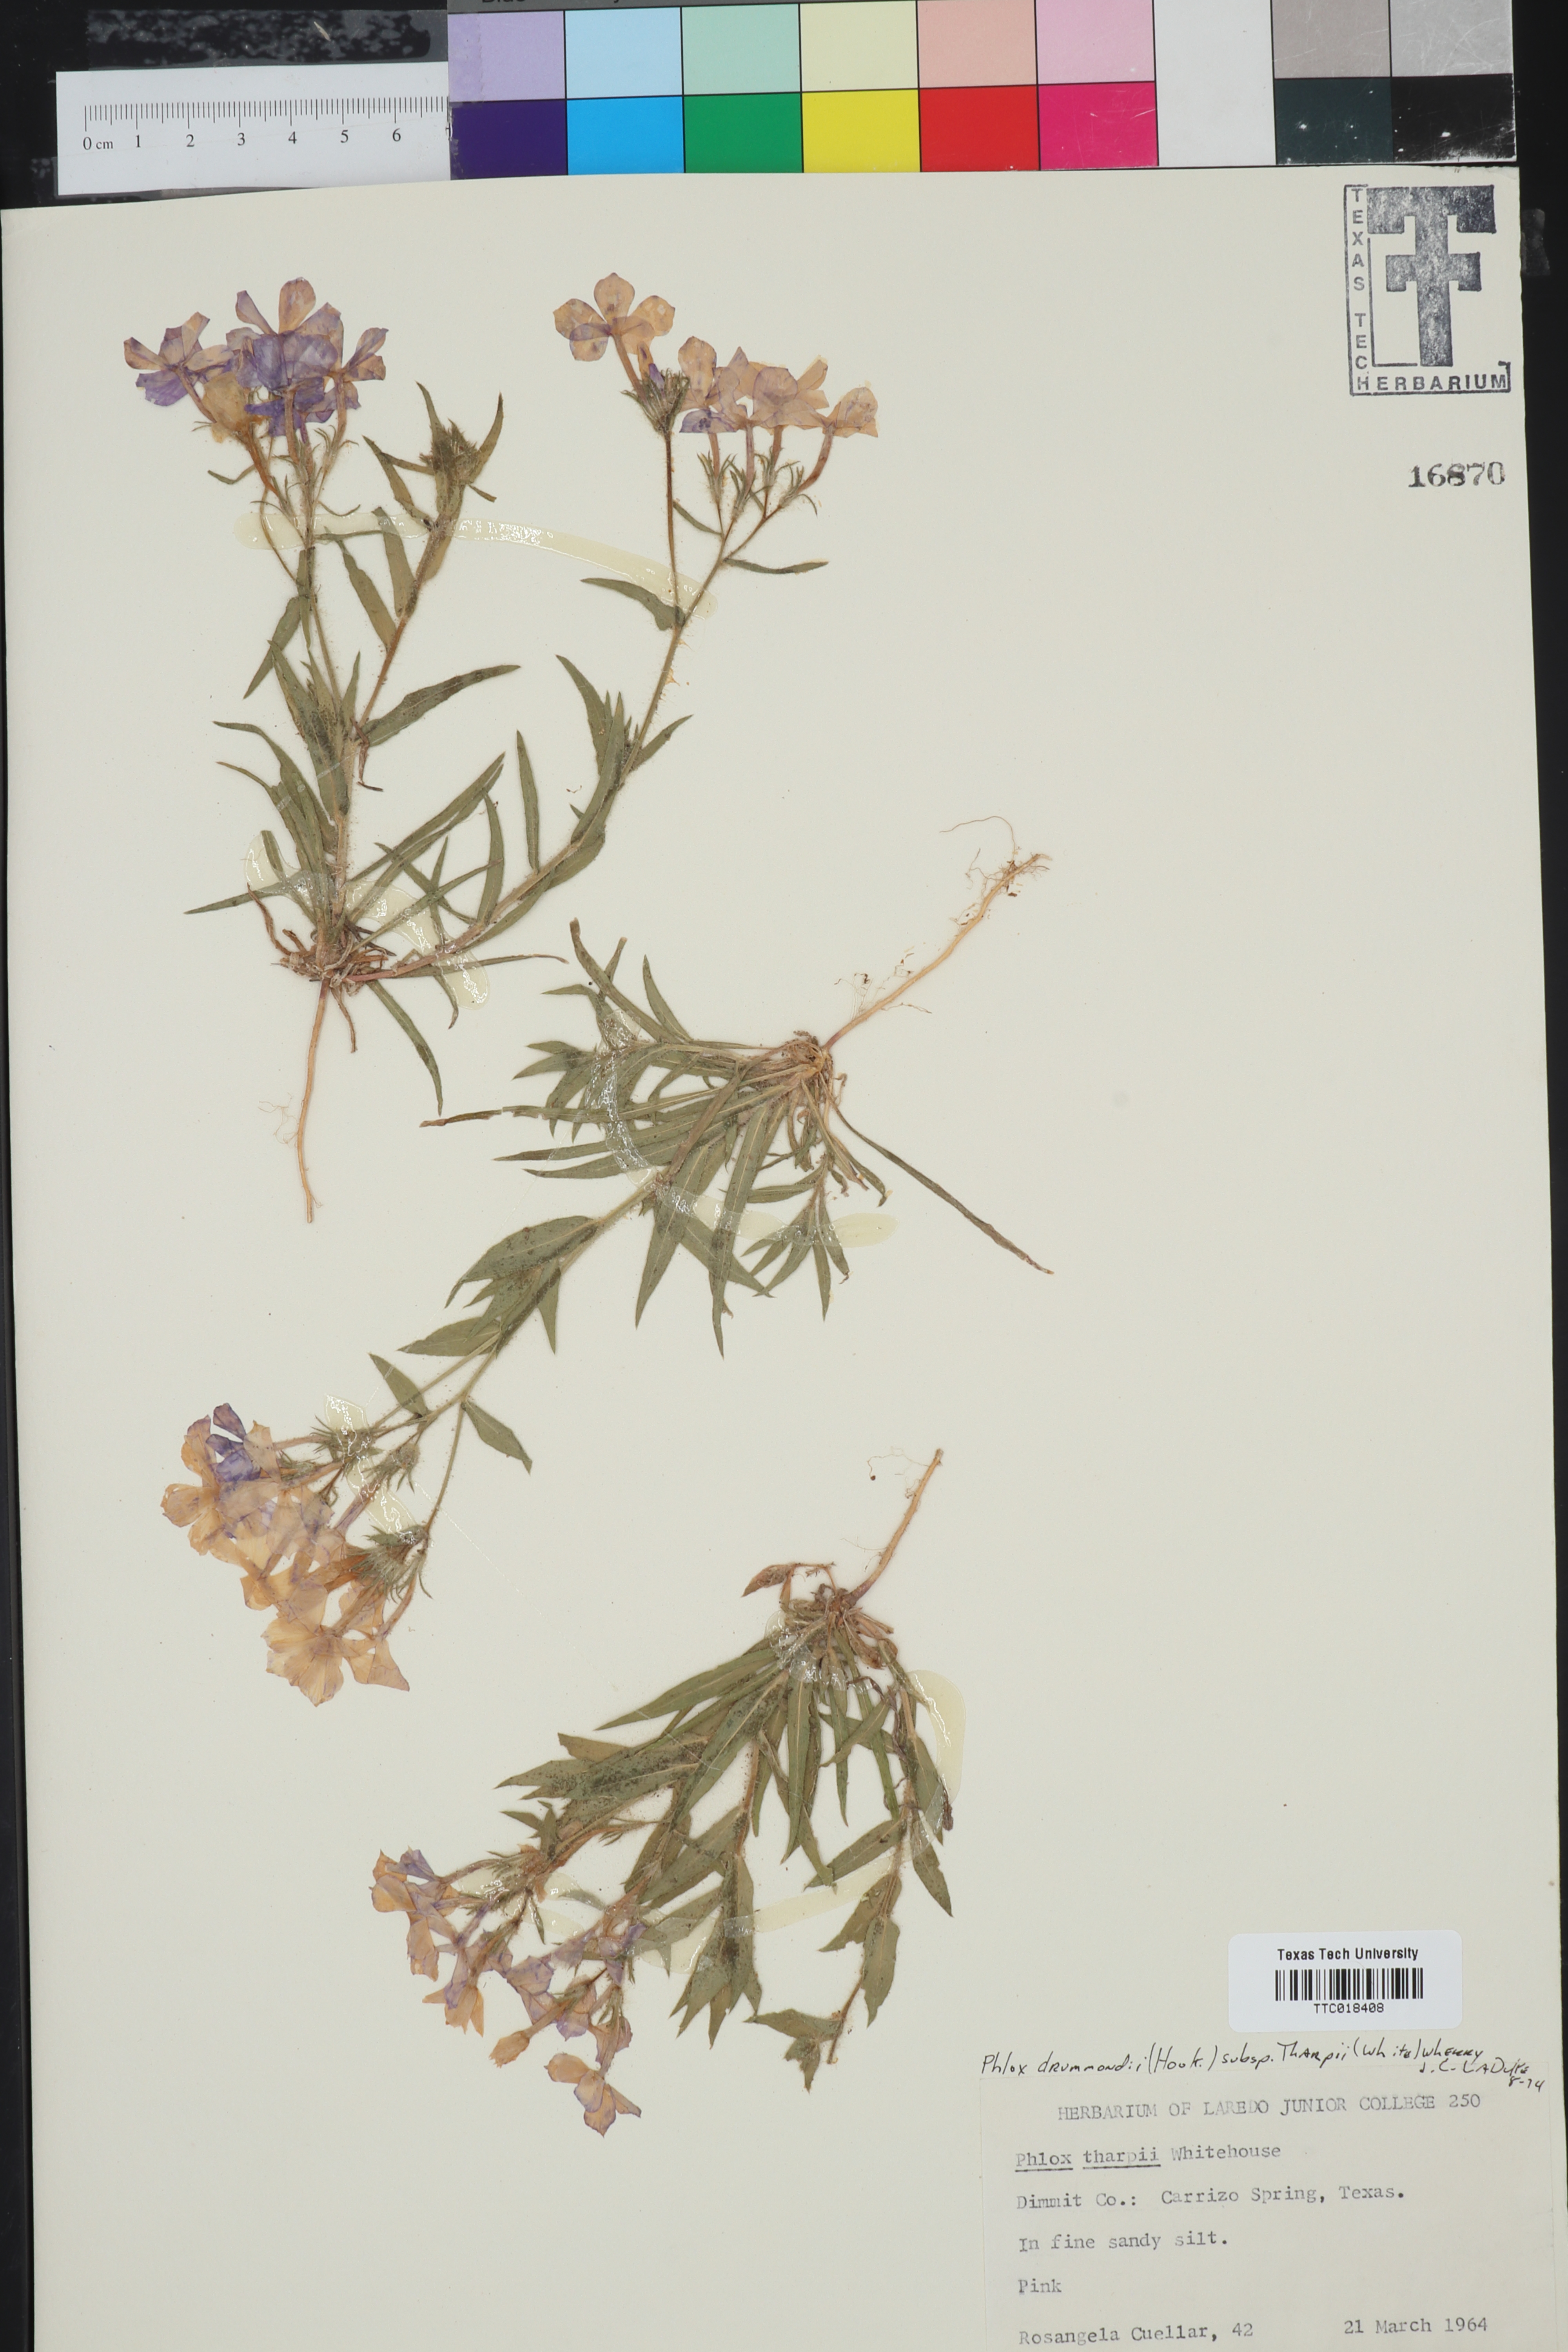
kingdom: Plantae
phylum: Tracheophyta
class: Magnoliopsida
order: Ericales
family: Polemoniaceae
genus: Phlox
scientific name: Phlox drummondii
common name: Drummond's phlox
